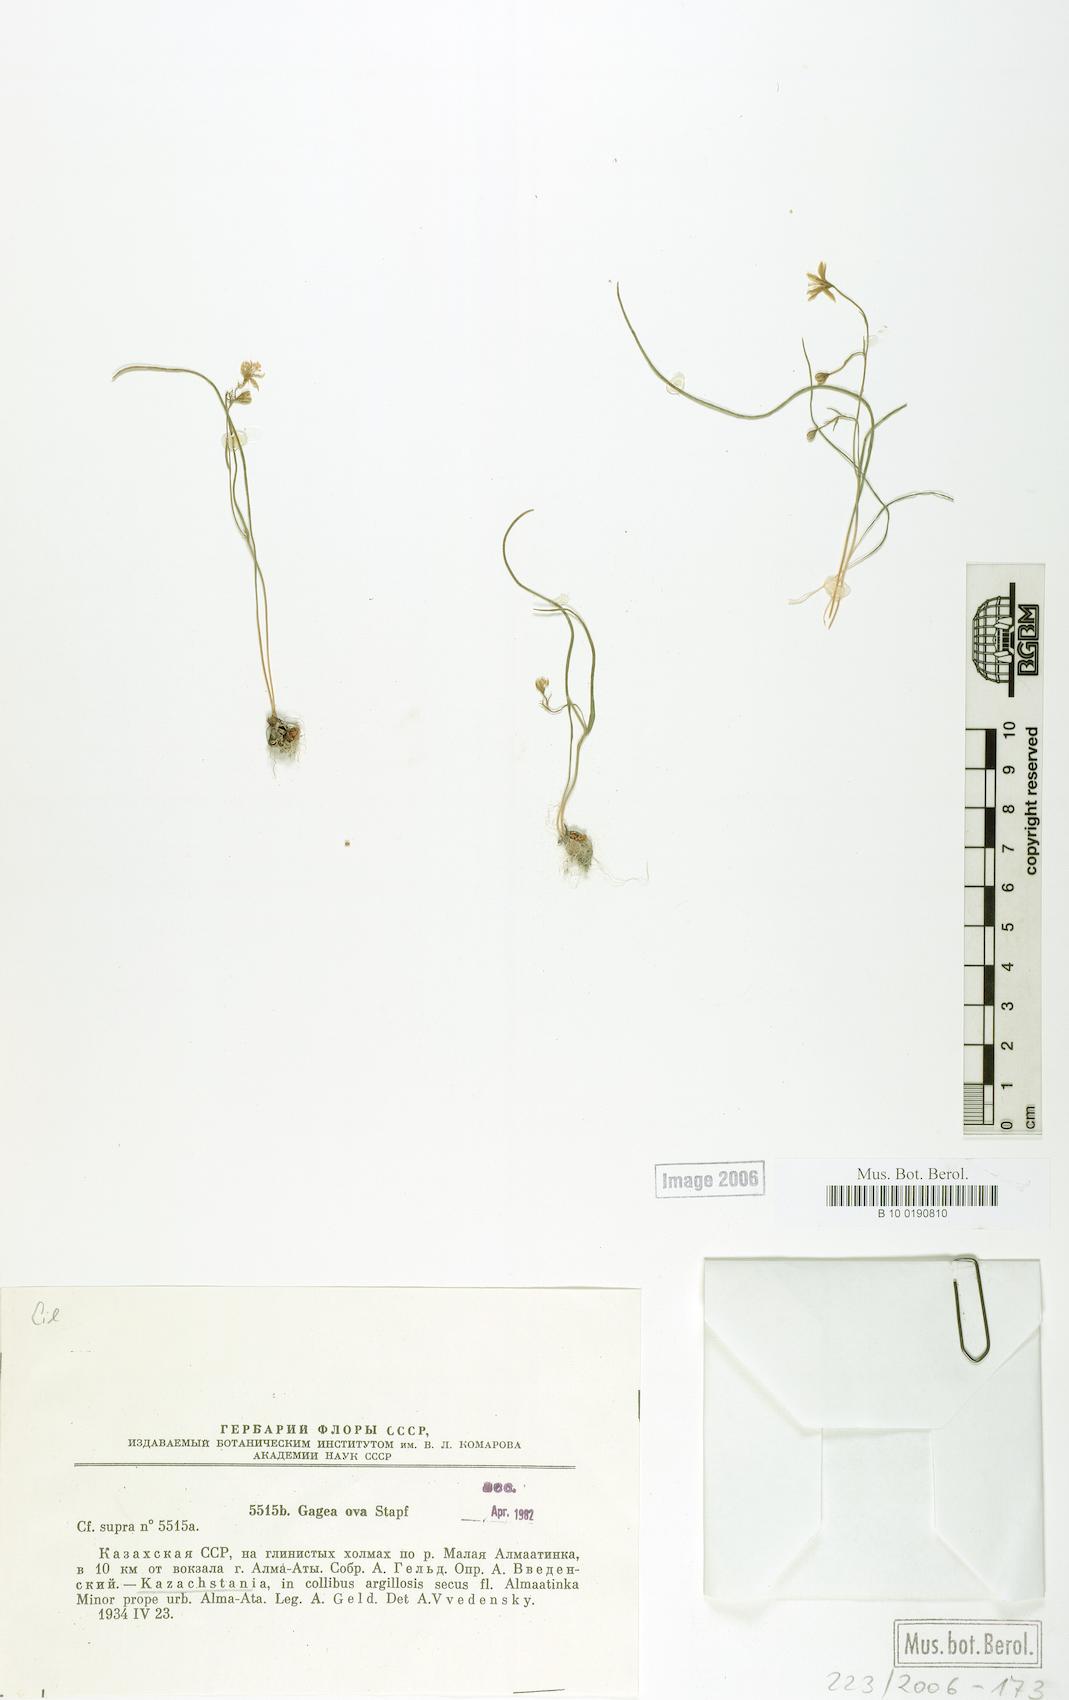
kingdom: Plantae
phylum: Tracheophyta
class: Liliopsida
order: Liliales
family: Liliaceae
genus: Gagea
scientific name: Gagea kunawurensis
